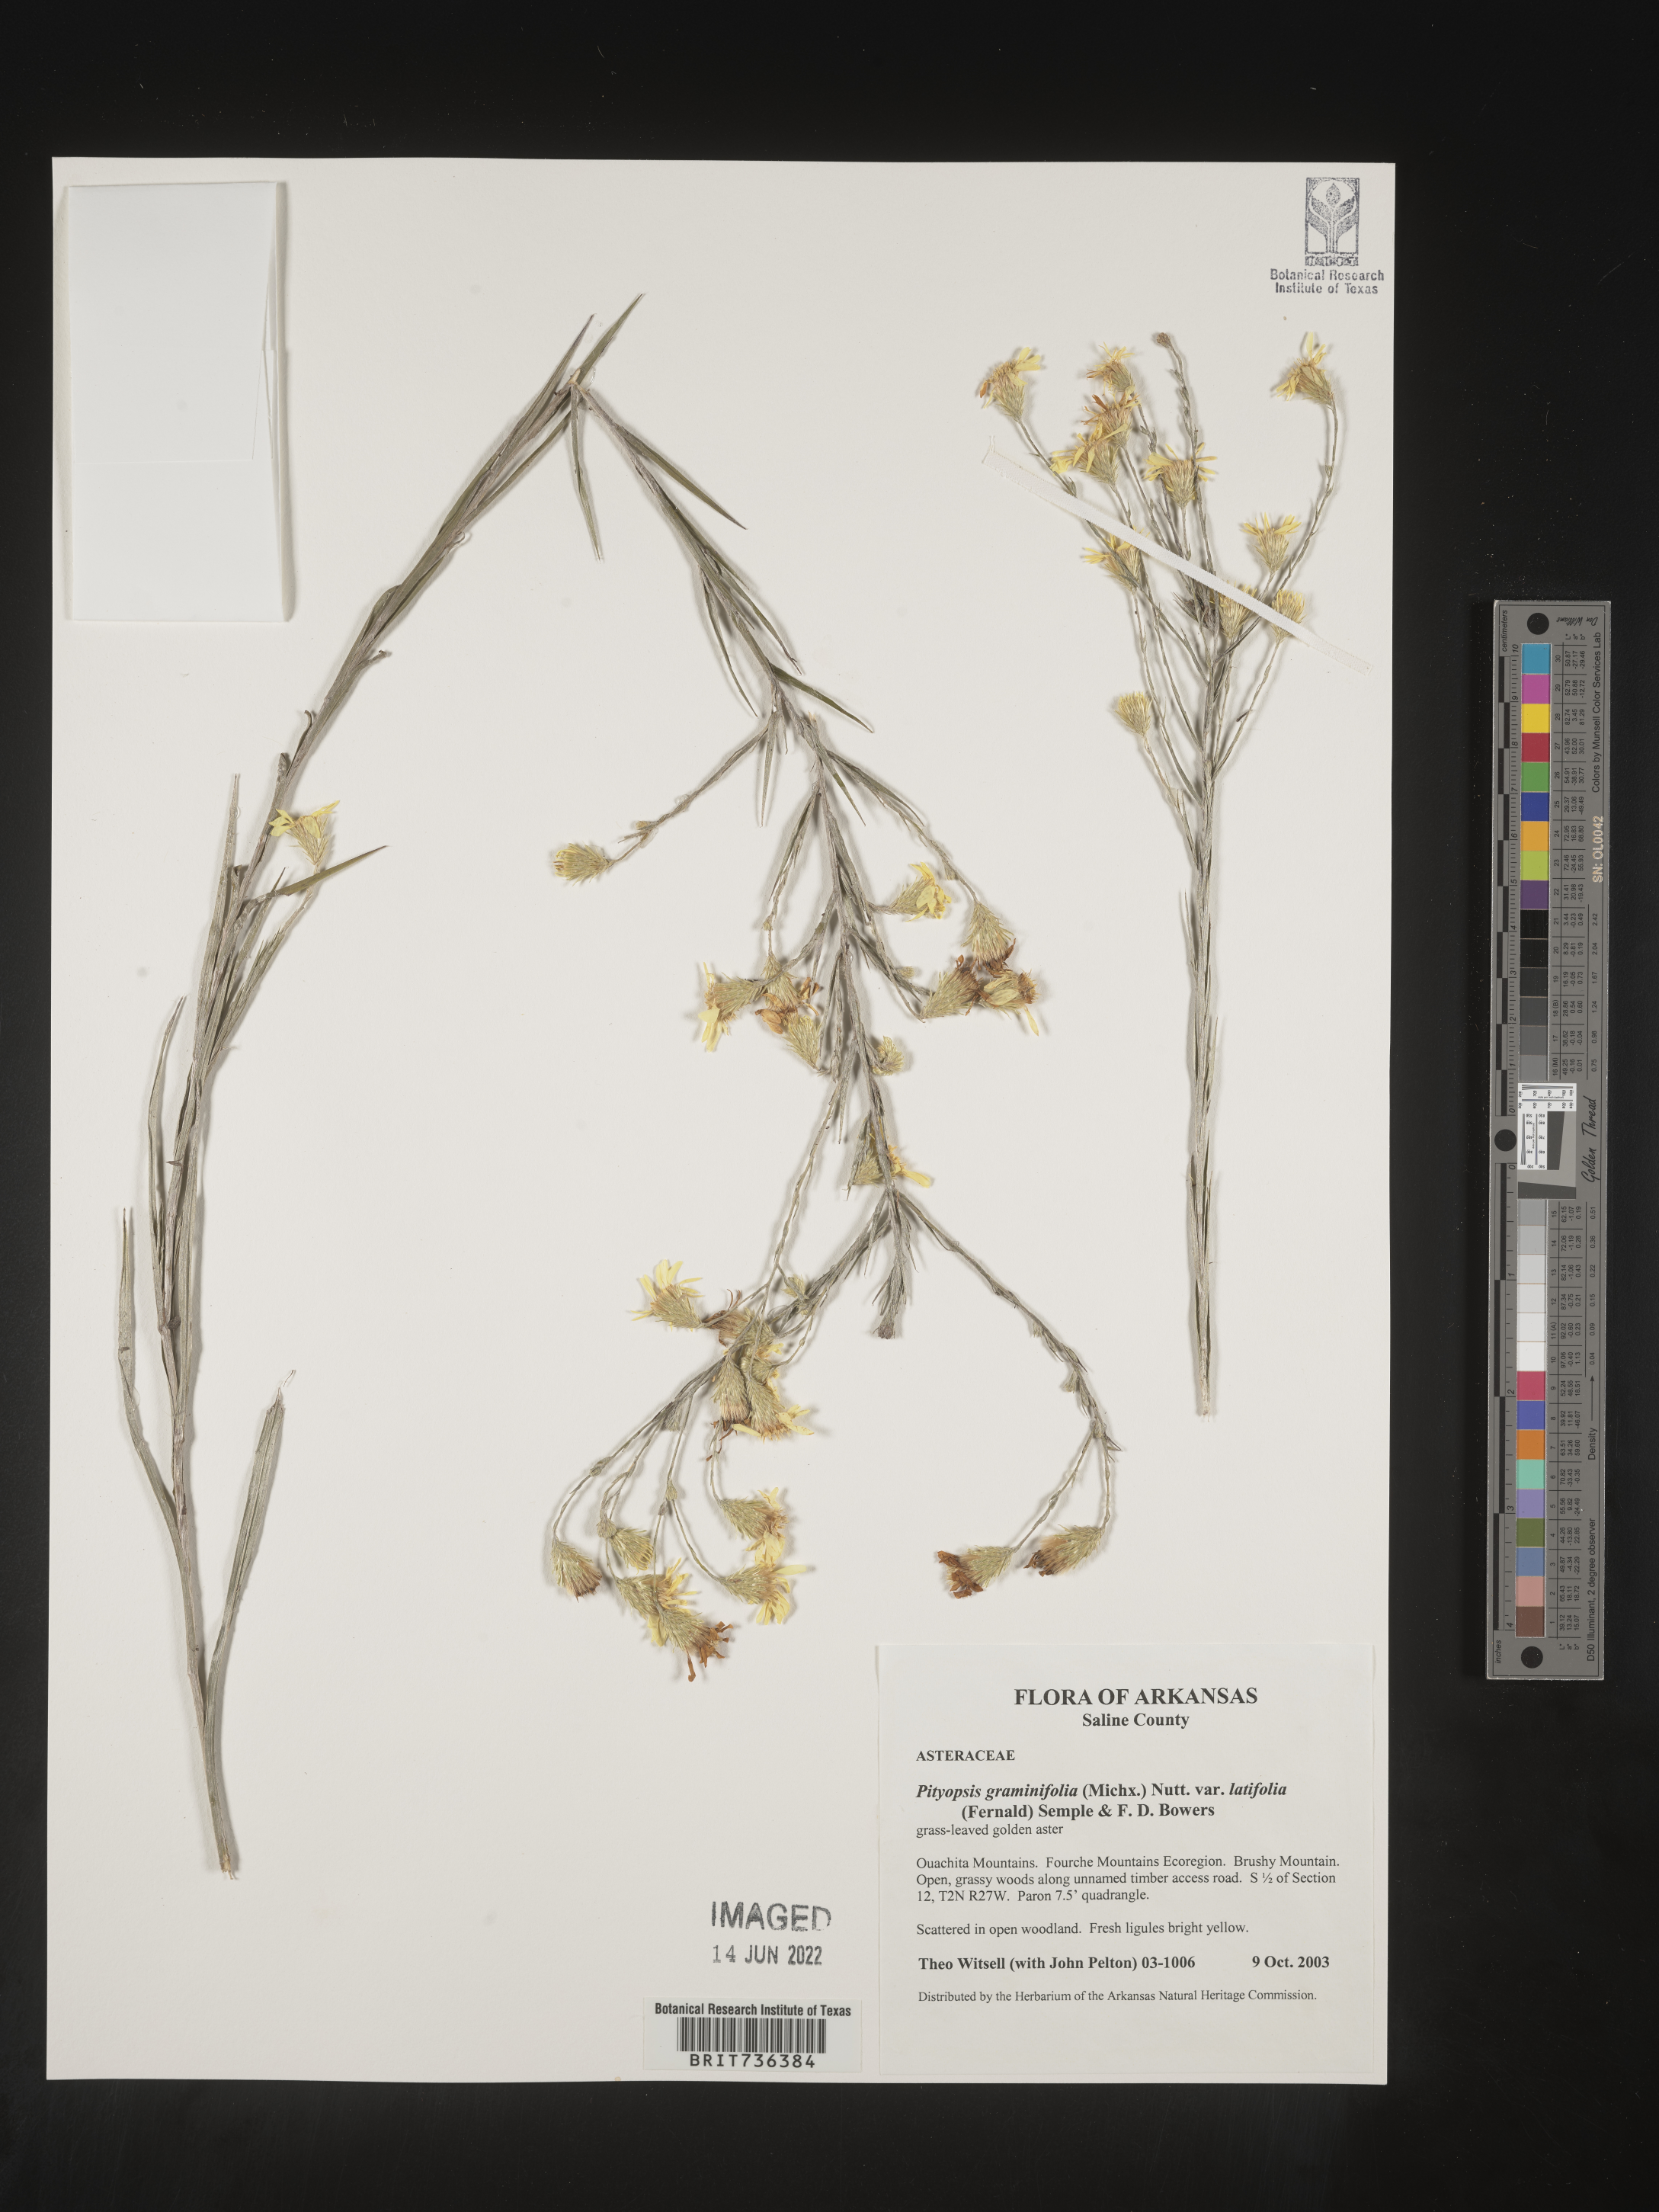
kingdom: Plantae
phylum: Tracheophyta
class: Magnoliopsida
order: Asterales
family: Asteraceae
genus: Pityopsis
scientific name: Pityopsis tenuifolia
